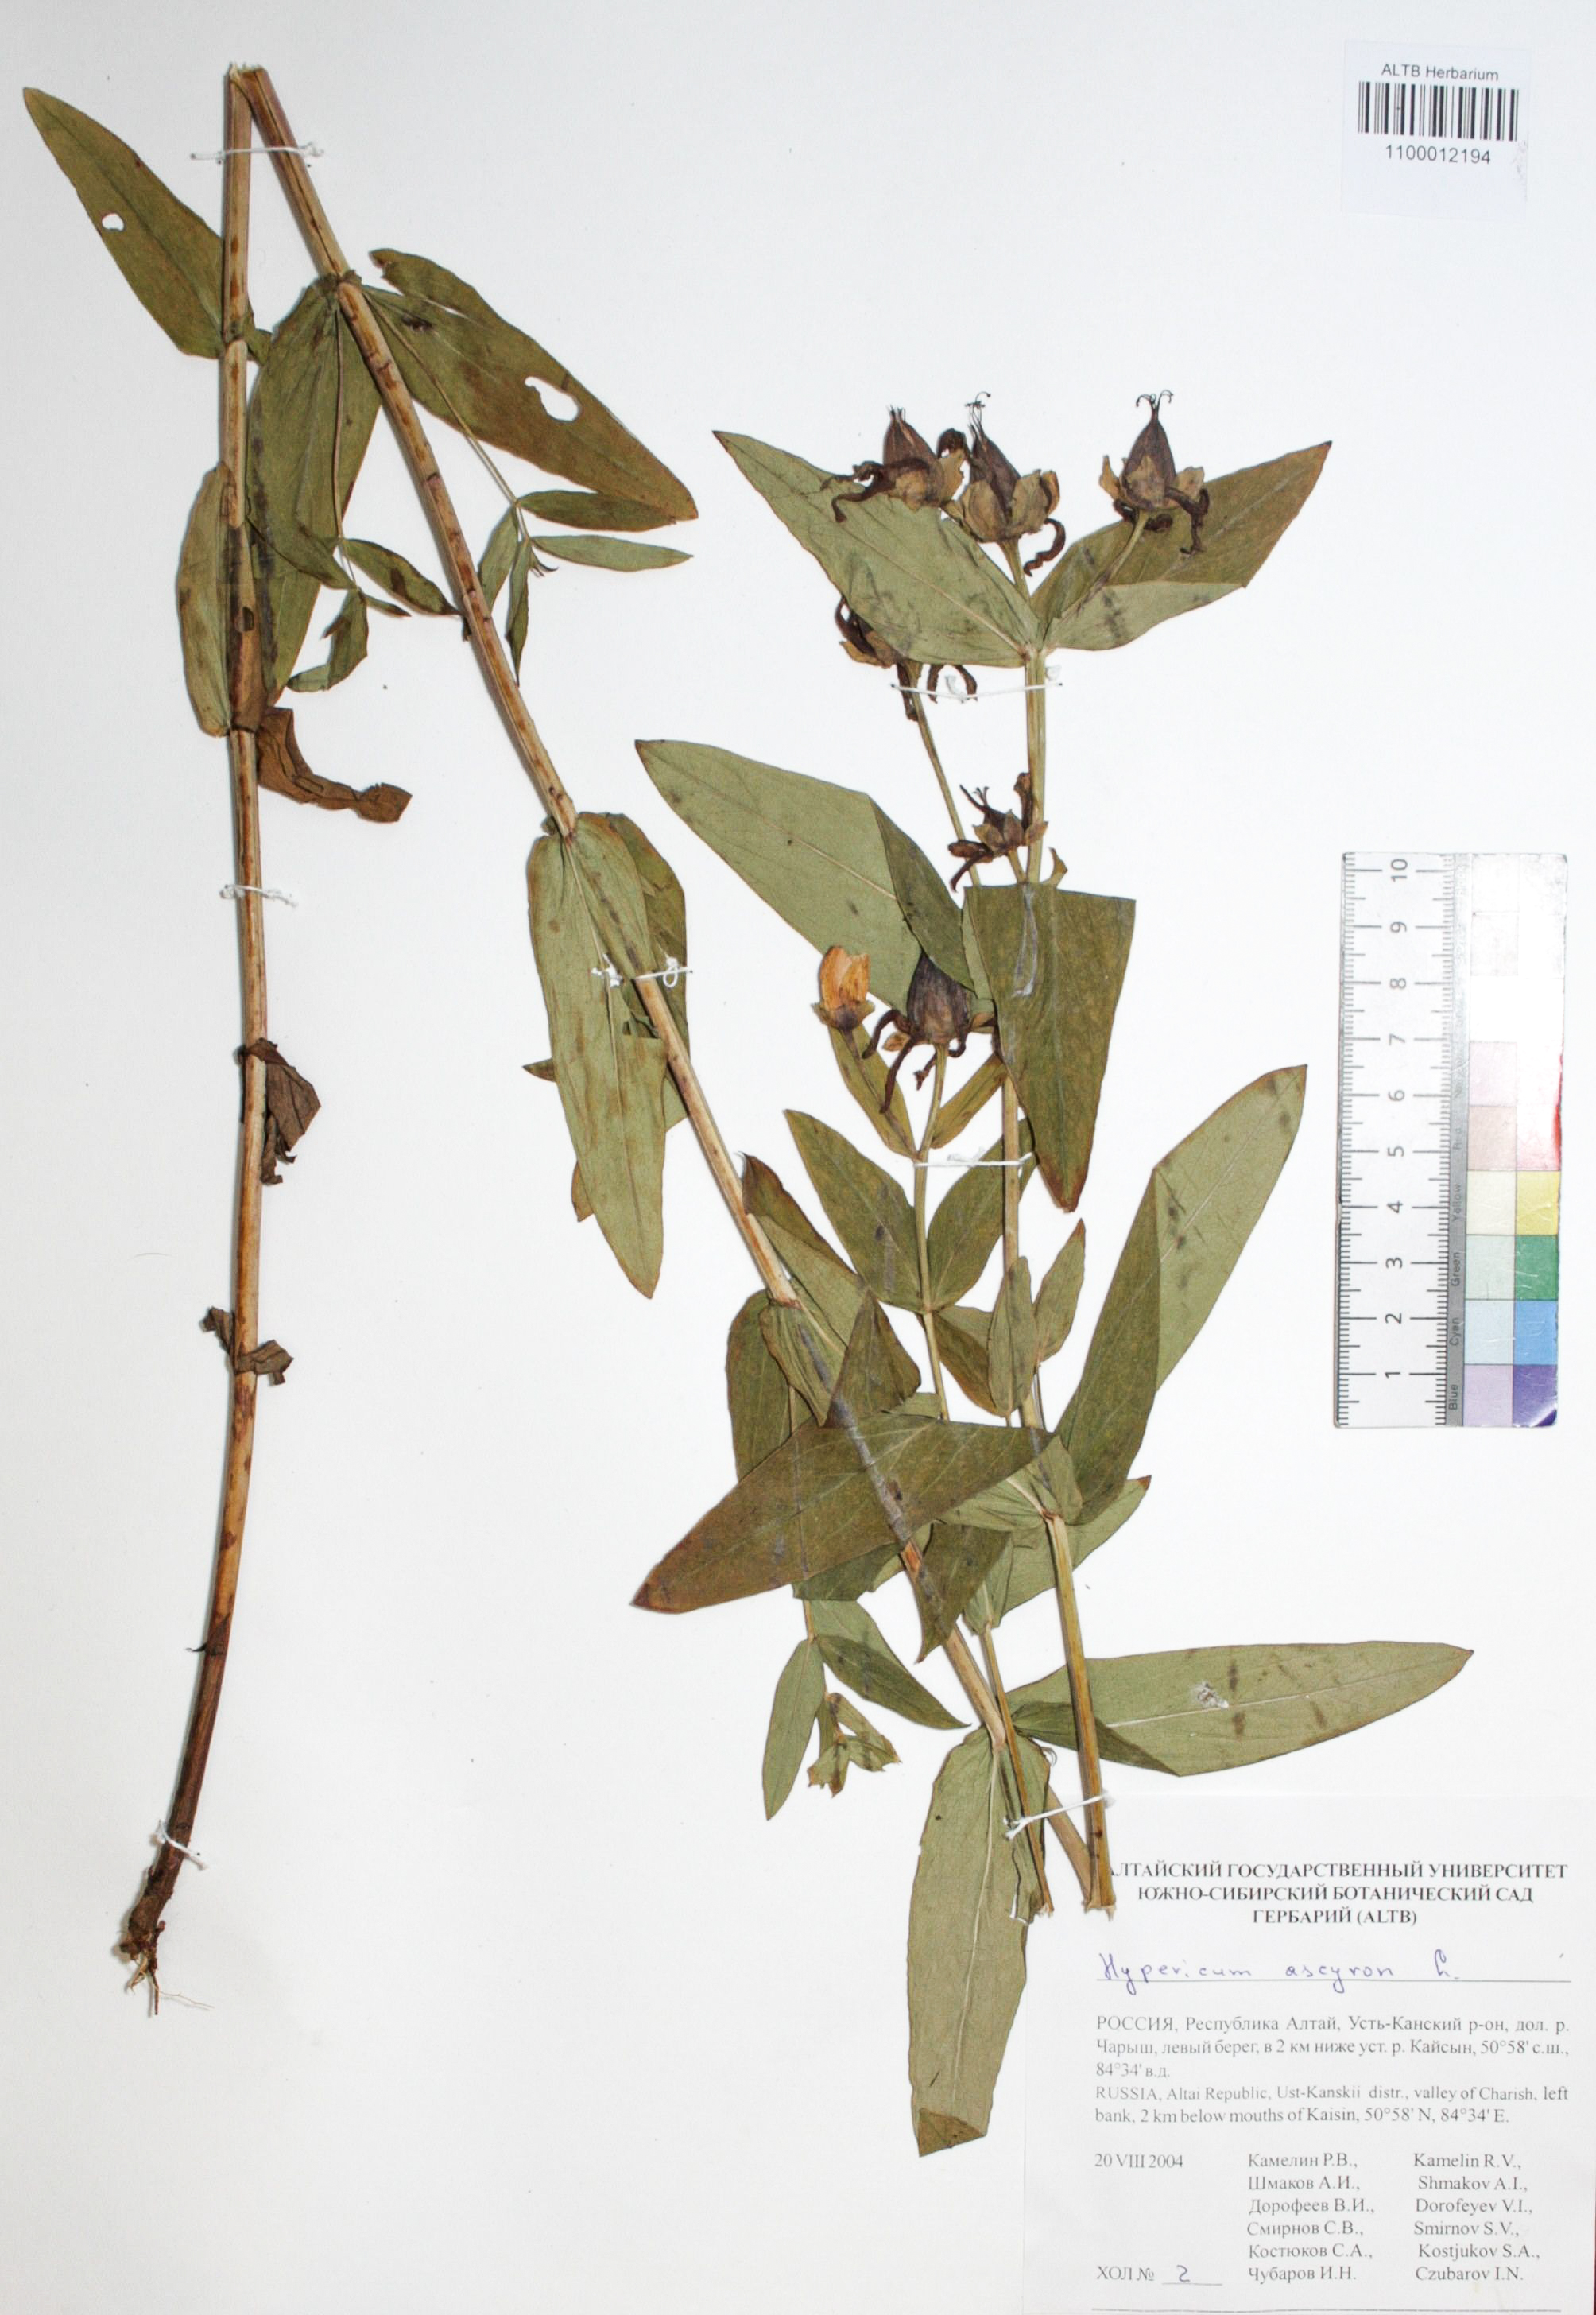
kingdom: Plantae
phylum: Tracheophyta
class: Magnoliopsida
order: Malpighiales
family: Hypericaceae
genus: Hypericum
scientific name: Hypericum ascyron
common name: Giant st. john's-wort
